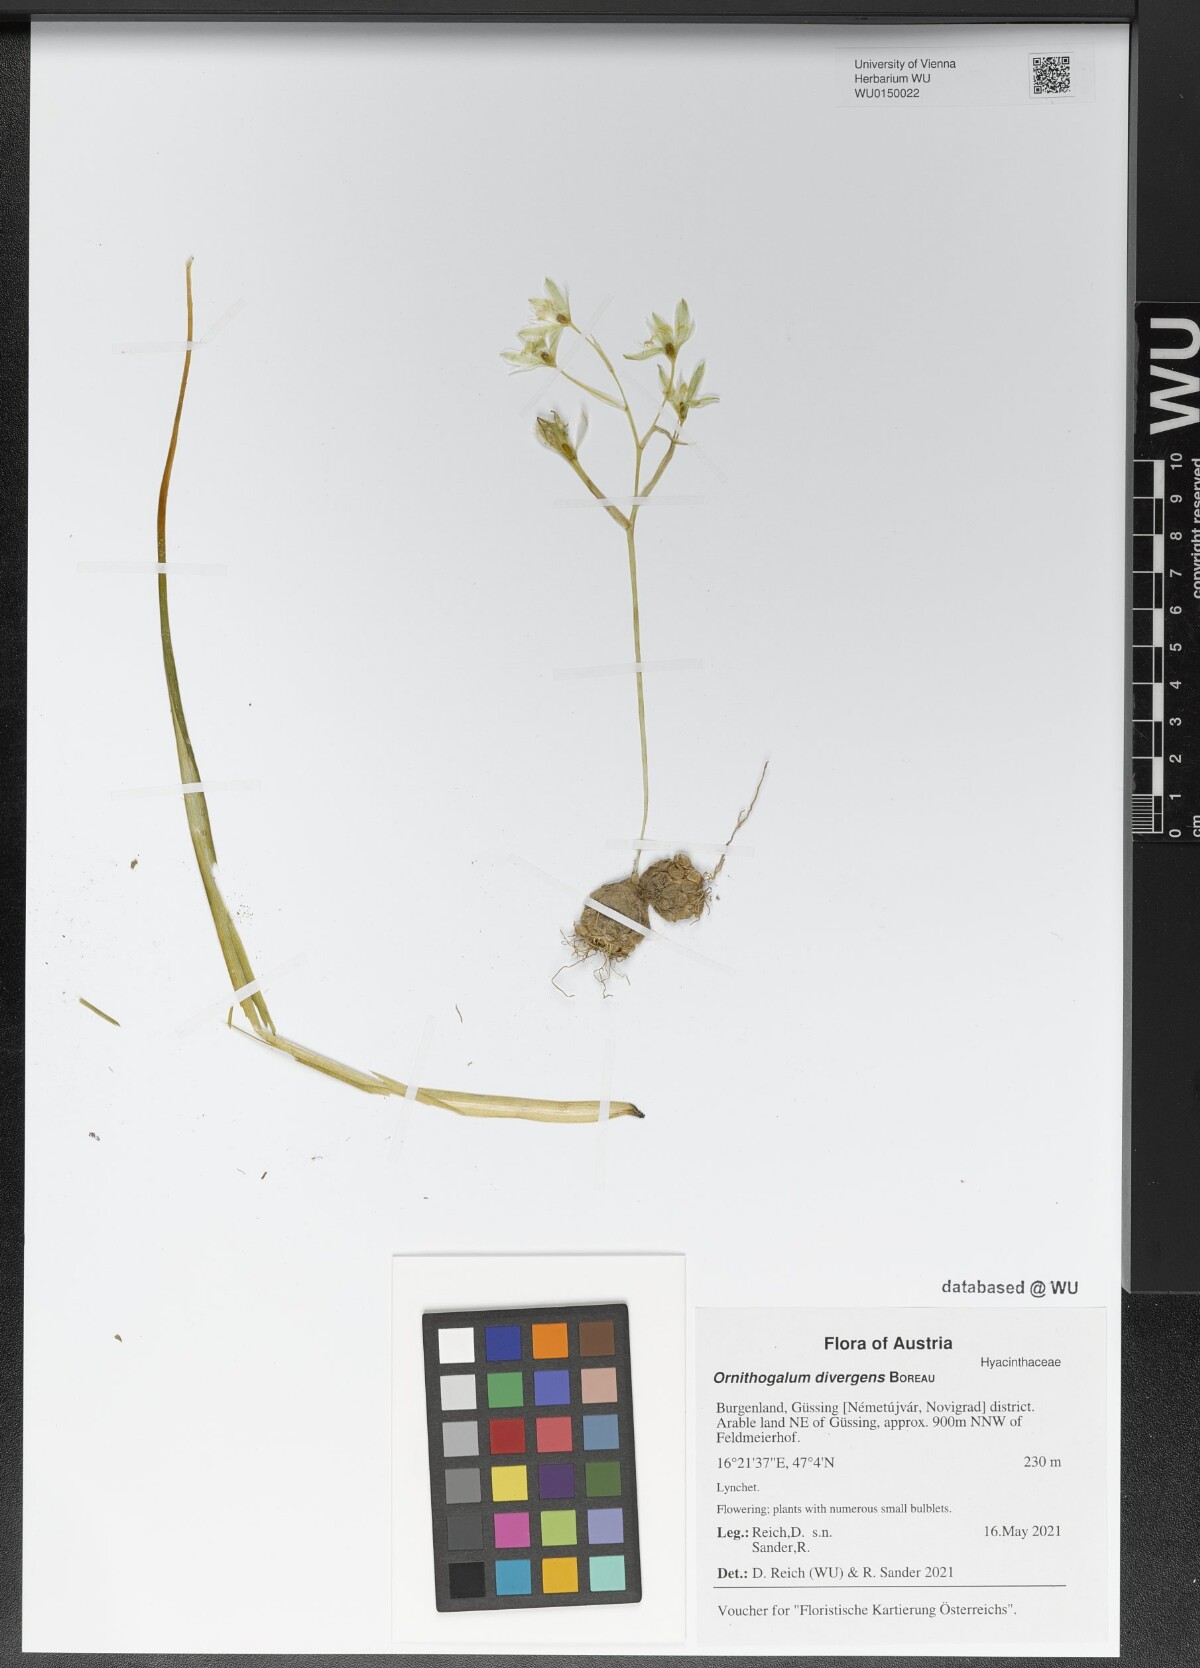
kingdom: Plantae
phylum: Tracheophyta
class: Liliopsida
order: Asparagales
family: Asparagaceae
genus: Ornithogalum
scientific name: Ornithogalum divergens
